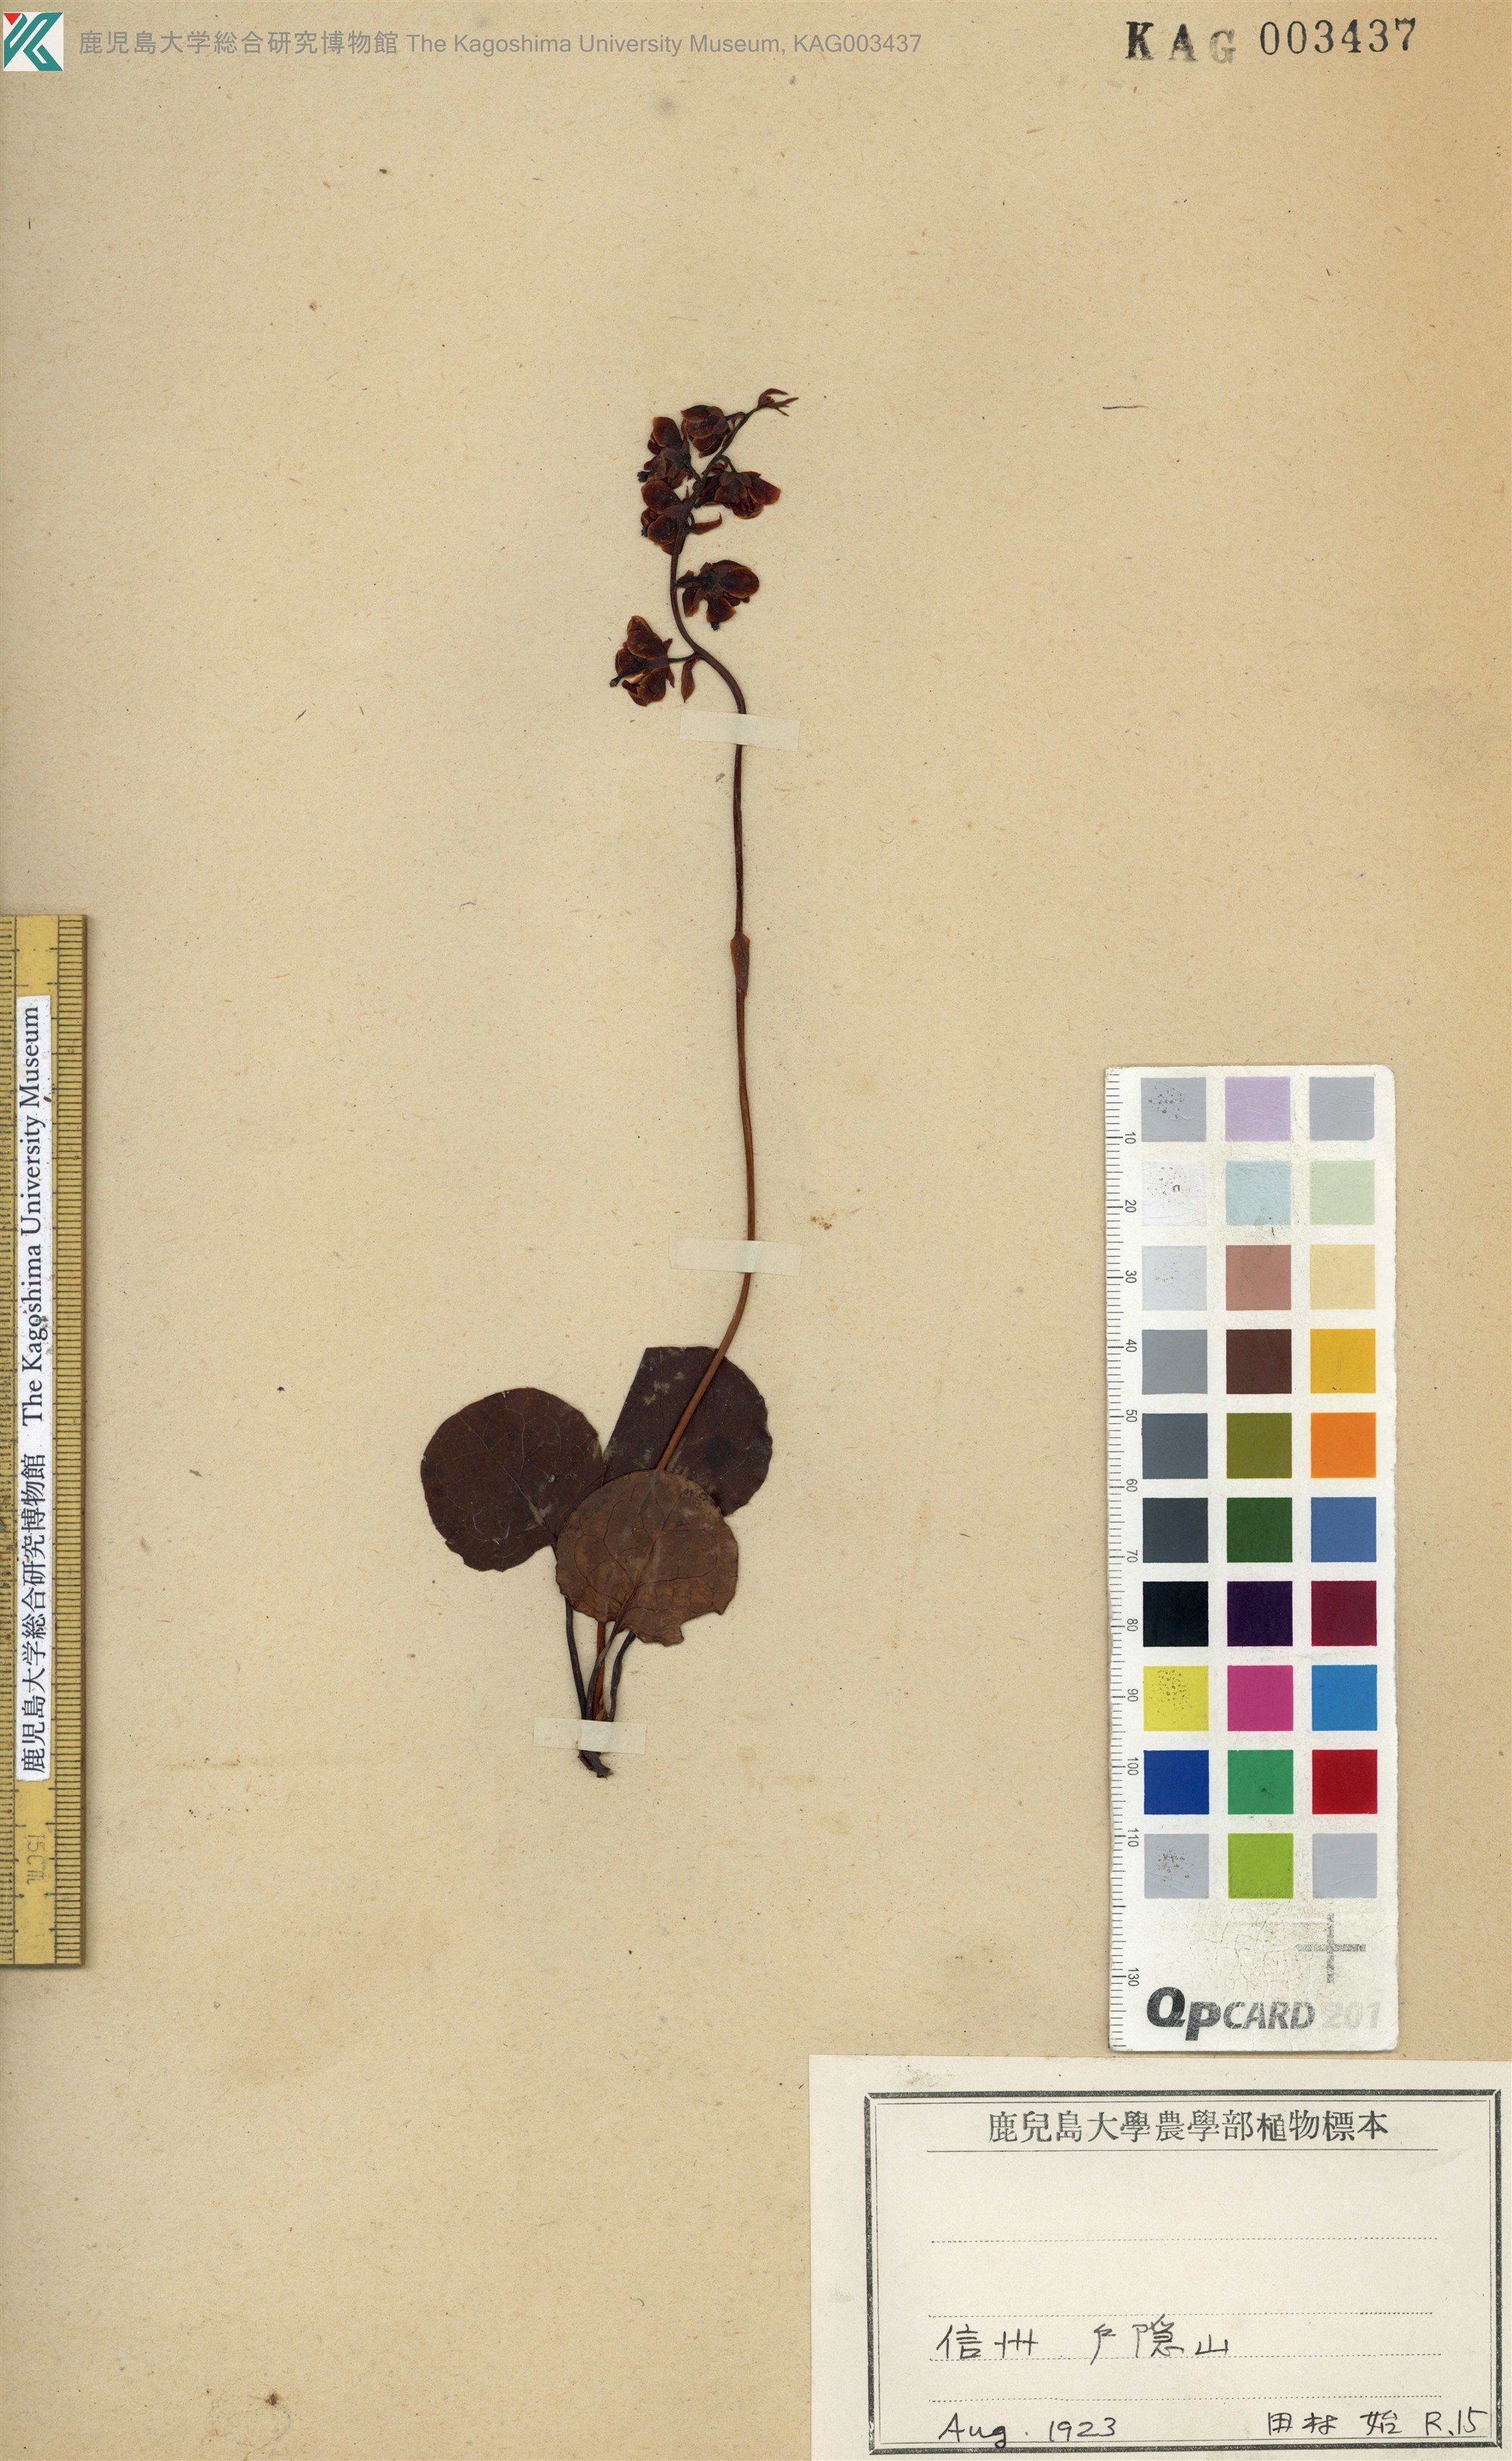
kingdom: Plantae
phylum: Tracheophyta
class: Magnoliopsida
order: Ericales
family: Ericaceae
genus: Pyrola
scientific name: Pyrola nephrophylla
